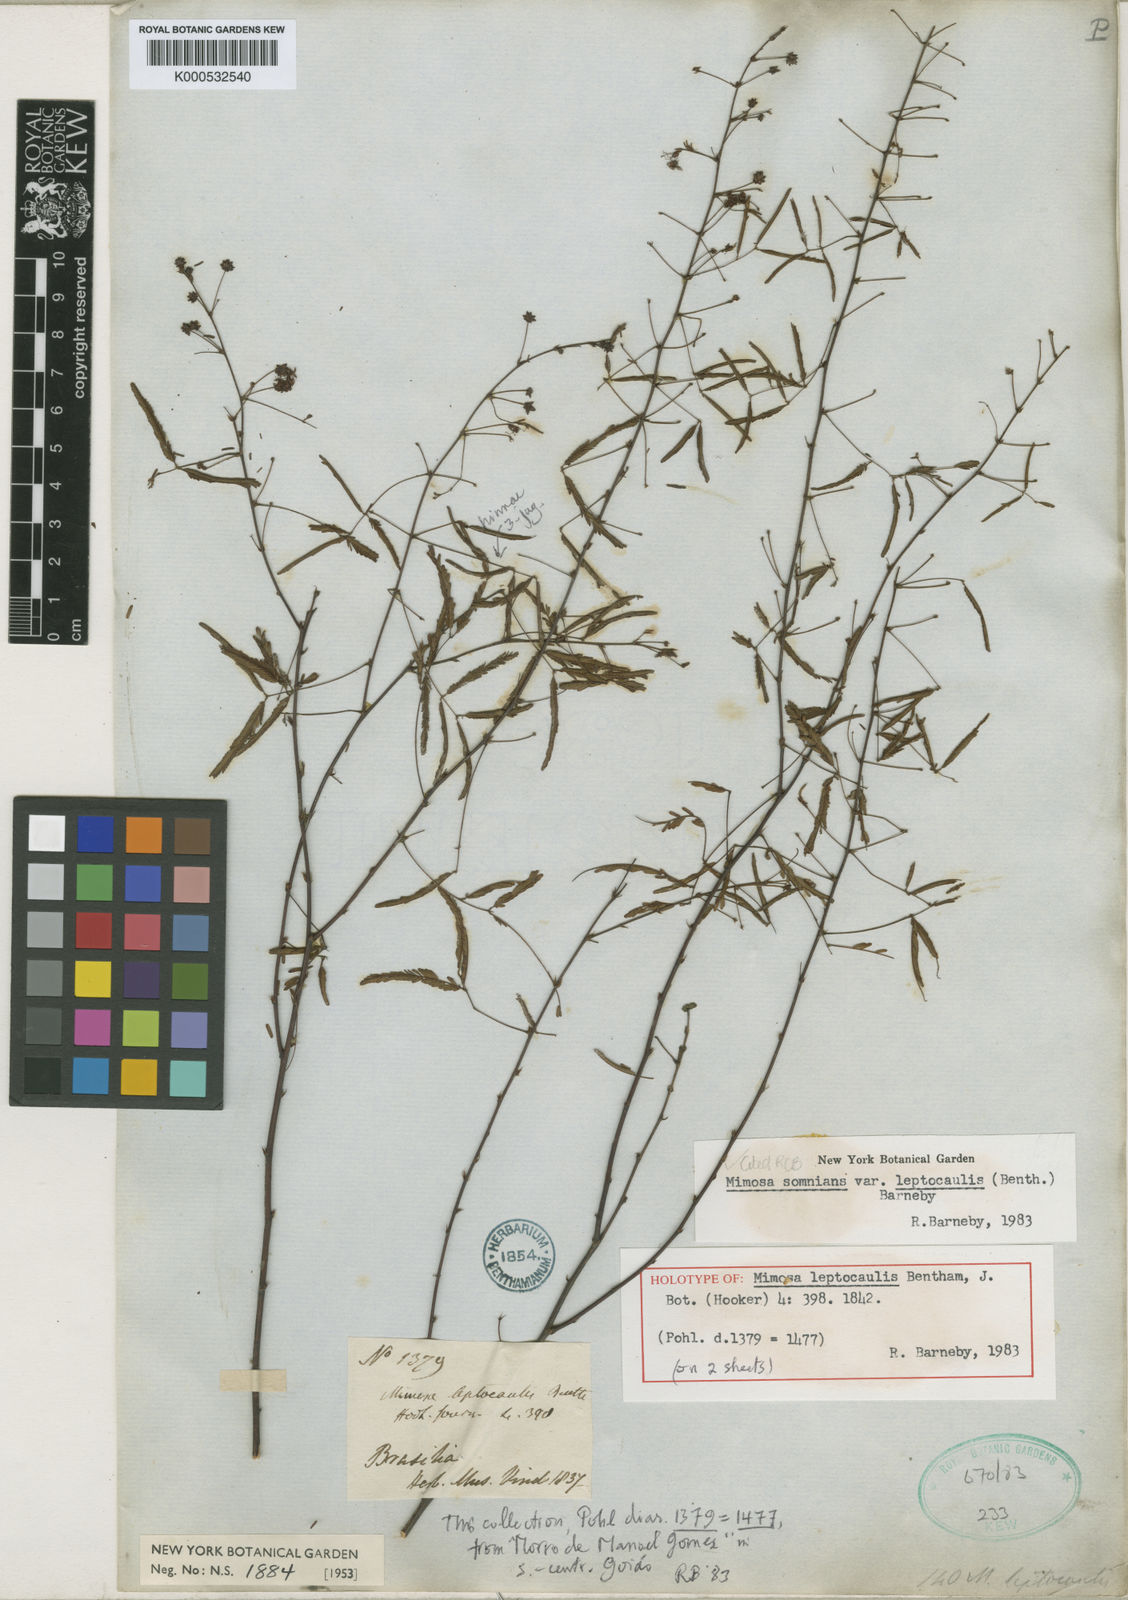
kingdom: Plantae
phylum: Tracheophyta
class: Magnoliopsida
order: Fabales
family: Fabaceae
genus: Mimosa
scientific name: Mimosa somnians
